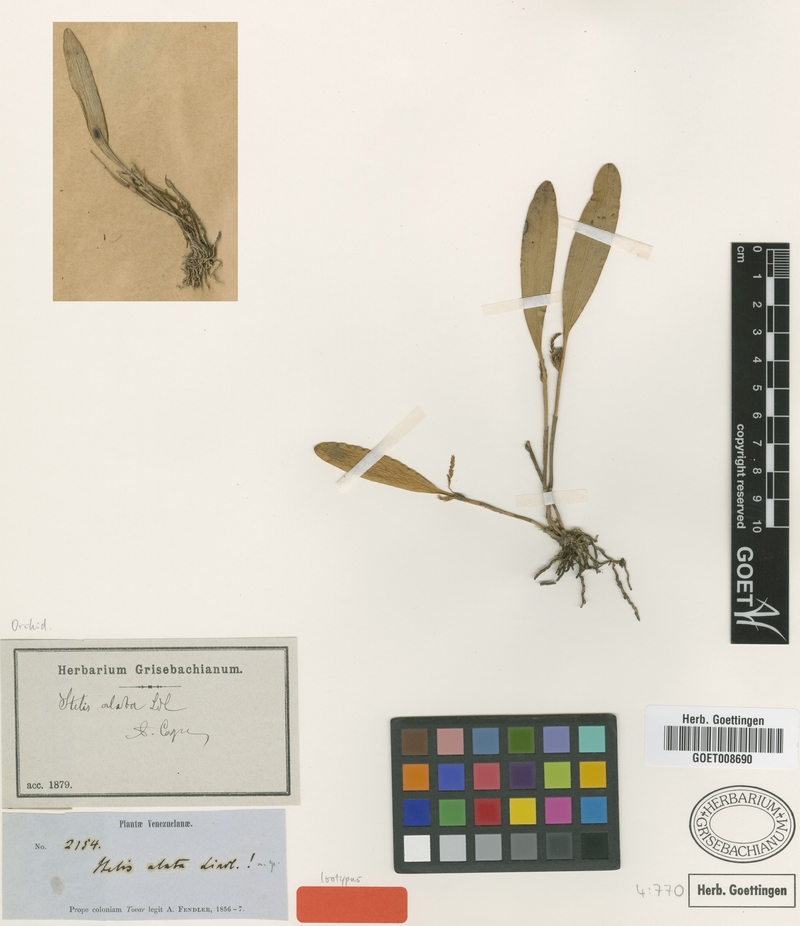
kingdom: Plantae
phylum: Tracheophyta
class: Liliopsida
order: Asparagales
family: Orchidaceae
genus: Stelis
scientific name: Stelis tenuilabris
